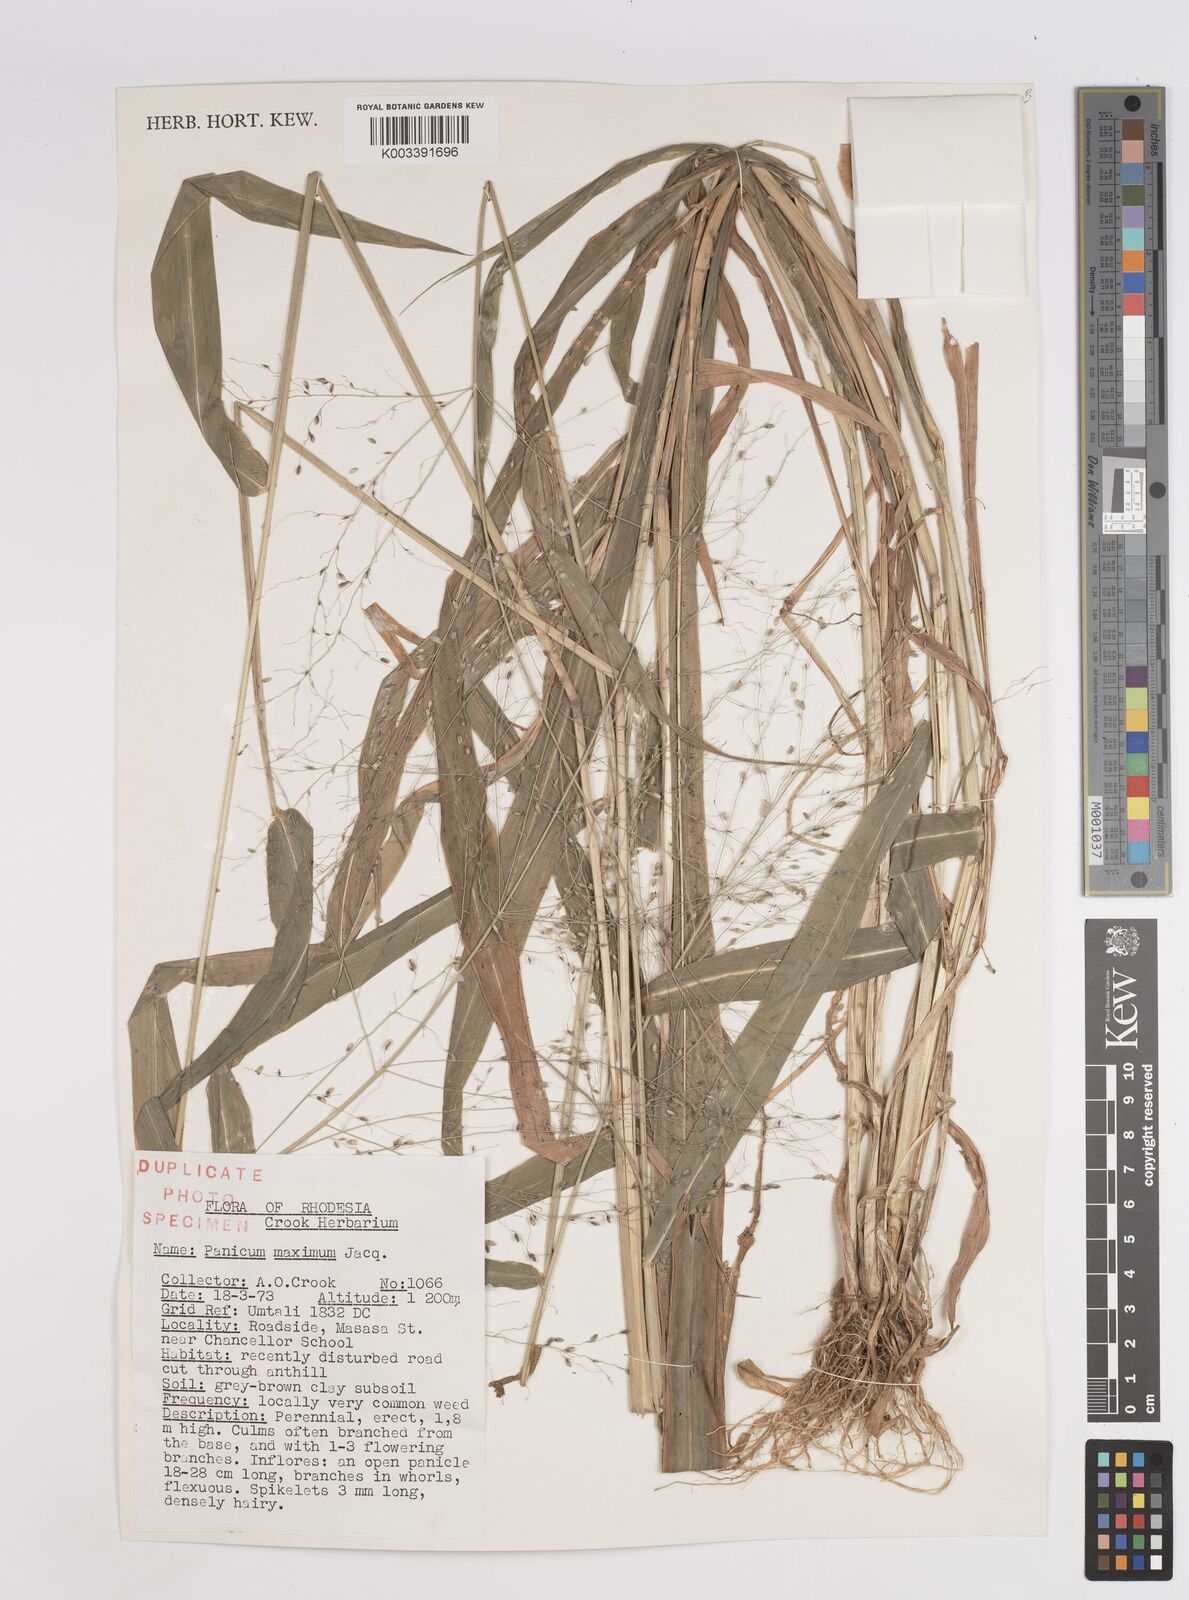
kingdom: Plantae
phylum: Tracheophyta
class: Liliopsida
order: Poales
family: Poaceae
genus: Megathyrsus
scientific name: Megathyrsus maximus
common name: Guineagrass
